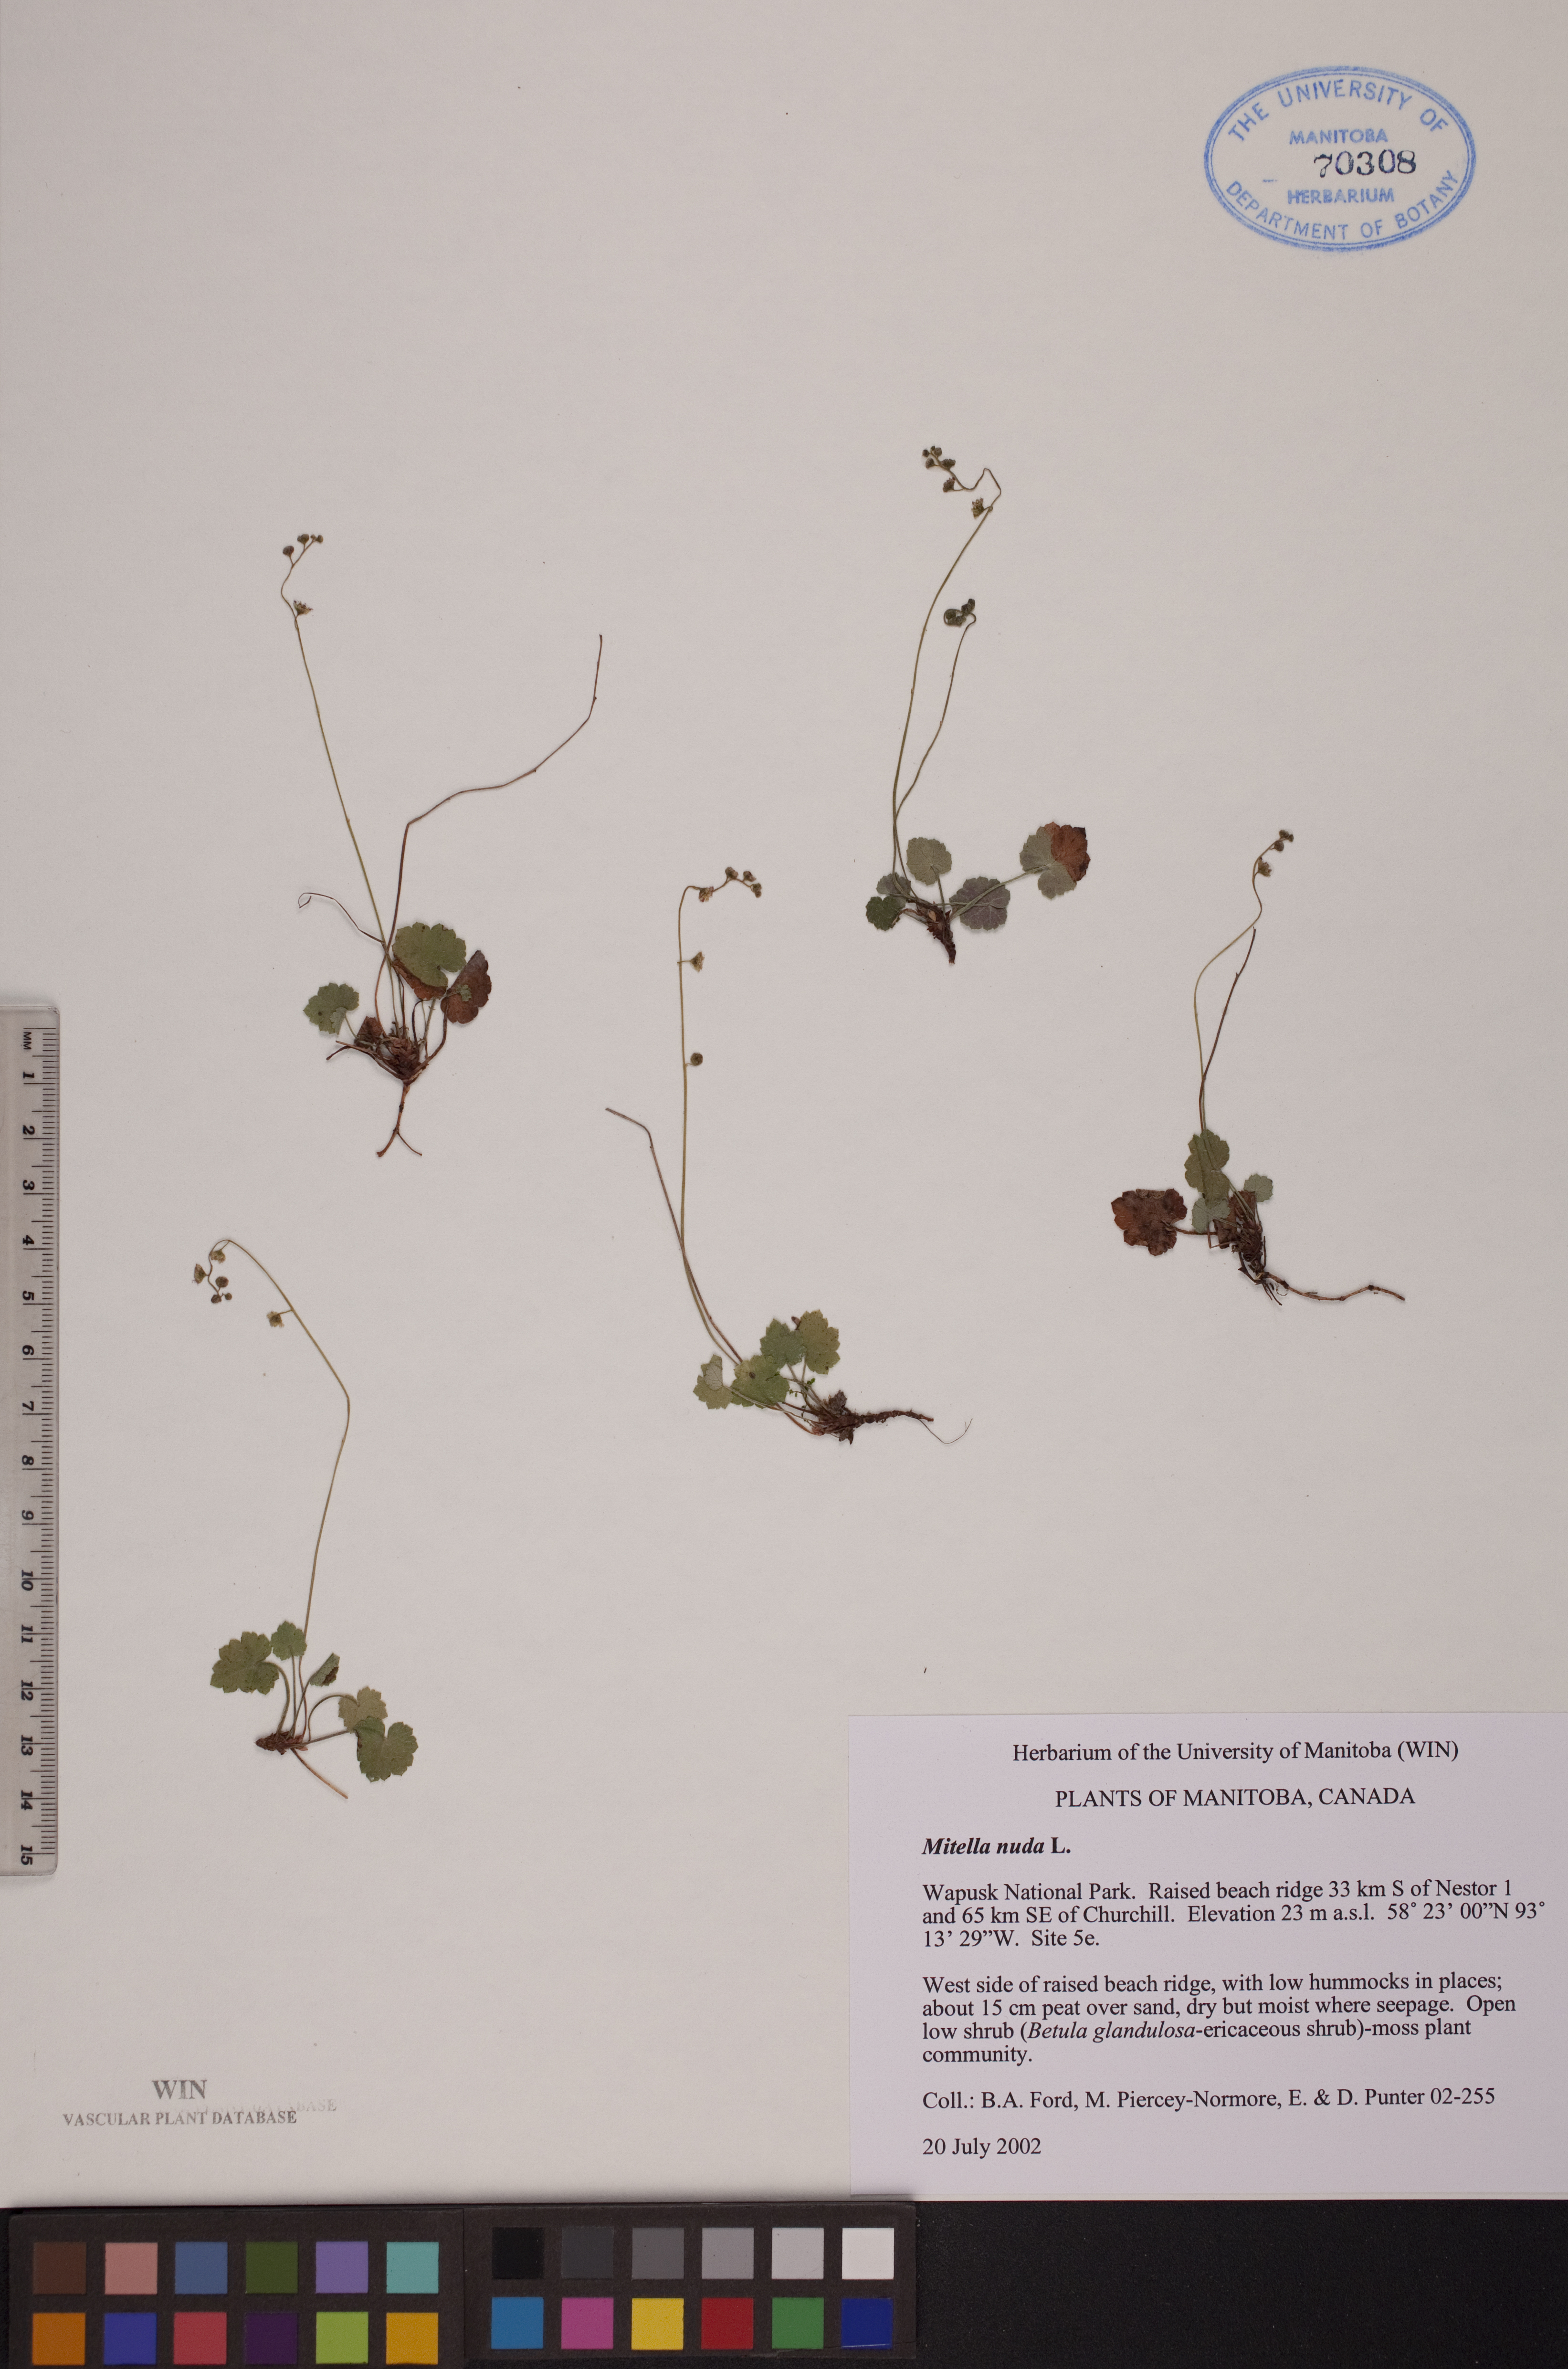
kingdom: Plantae
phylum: Tracheophyta
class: Magnoliopsida
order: Saxifragales
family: Saxifragaceae
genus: Mitella
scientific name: Mitella nuda
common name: Bare-stemmed bishop's-cap
